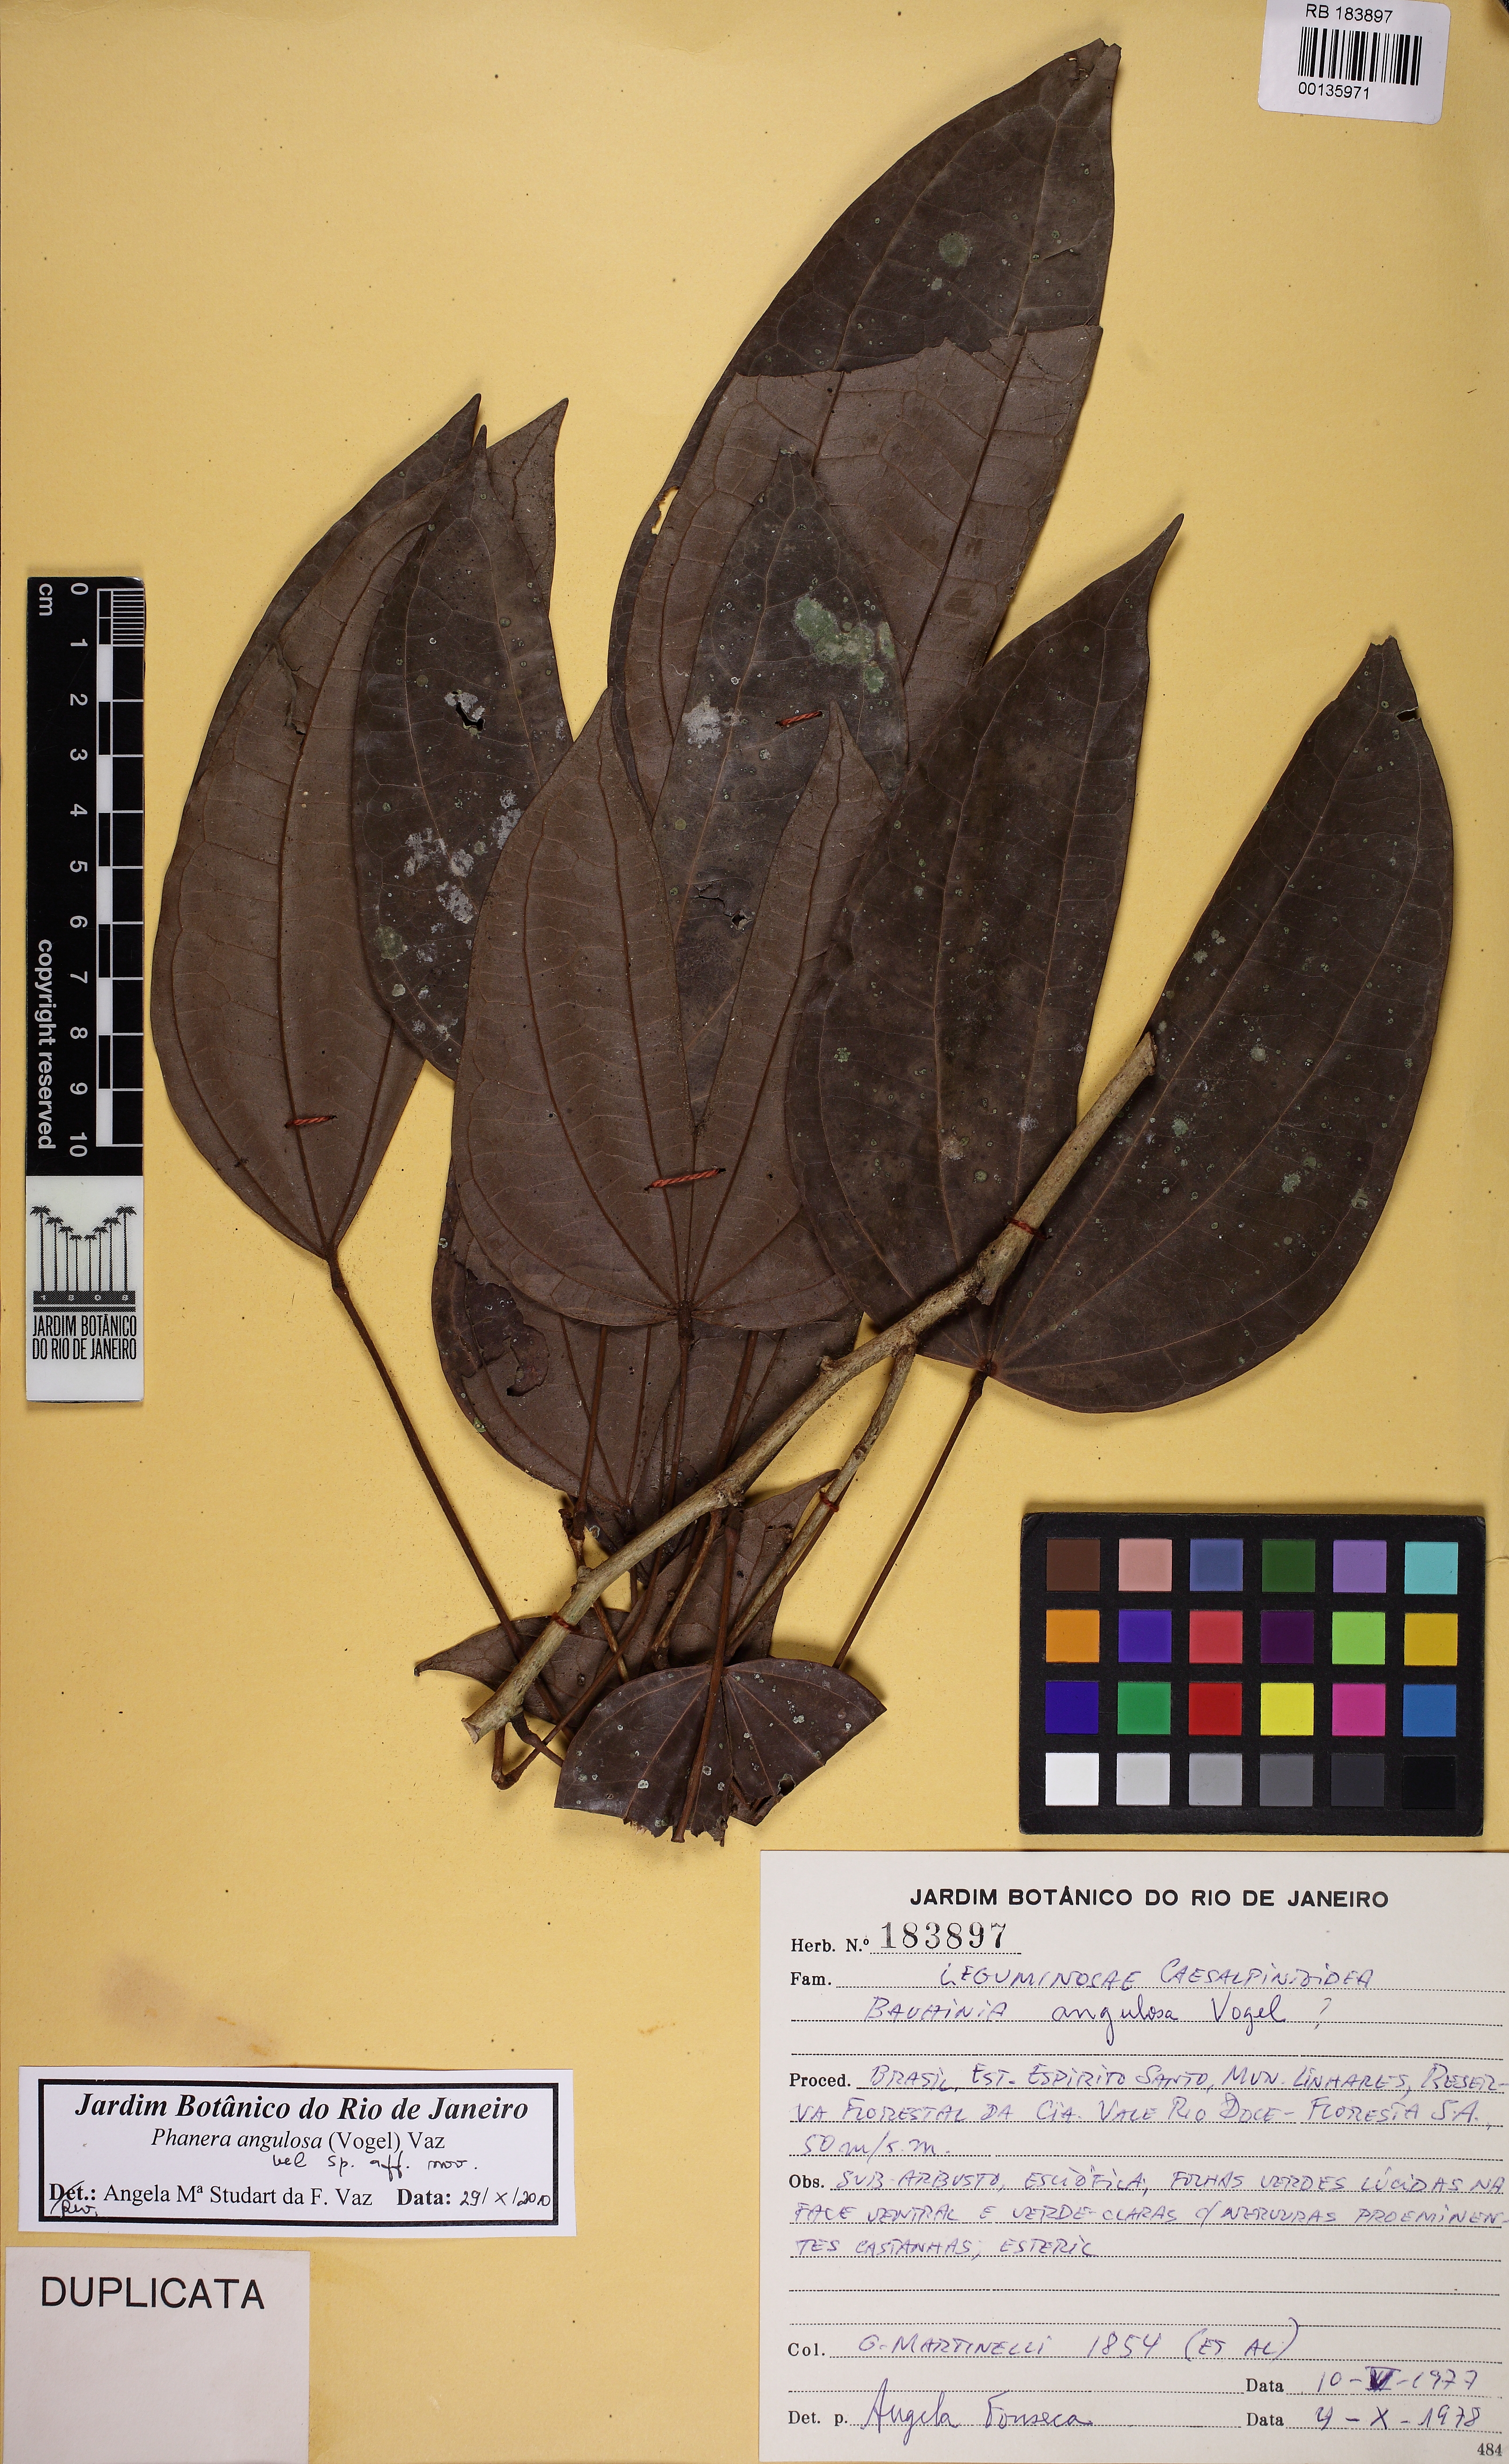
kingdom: Plantae
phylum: Tracheophyta
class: Magnoliopsida
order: Fabales
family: Fabaceae
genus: Schnella
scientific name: Schnella angulosa
